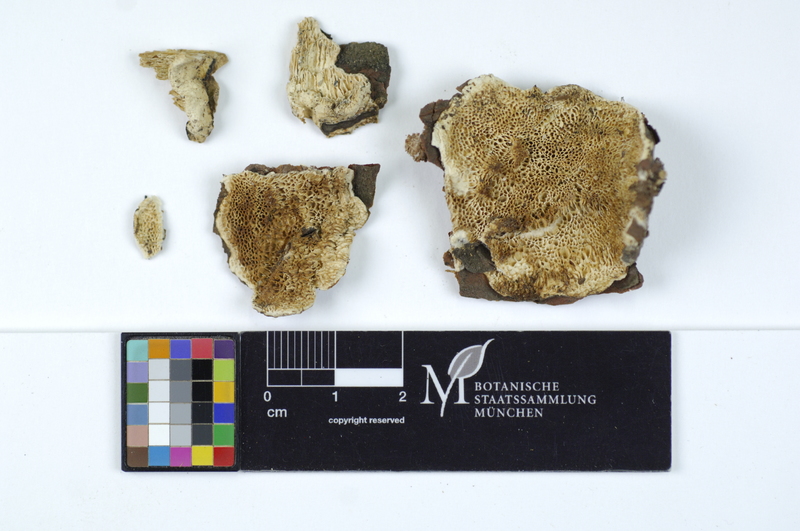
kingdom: Plantae
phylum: Tracheophyta
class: Pinopsida
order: Pinales
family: Pinaceae
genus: Pinus
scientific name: Pinus
